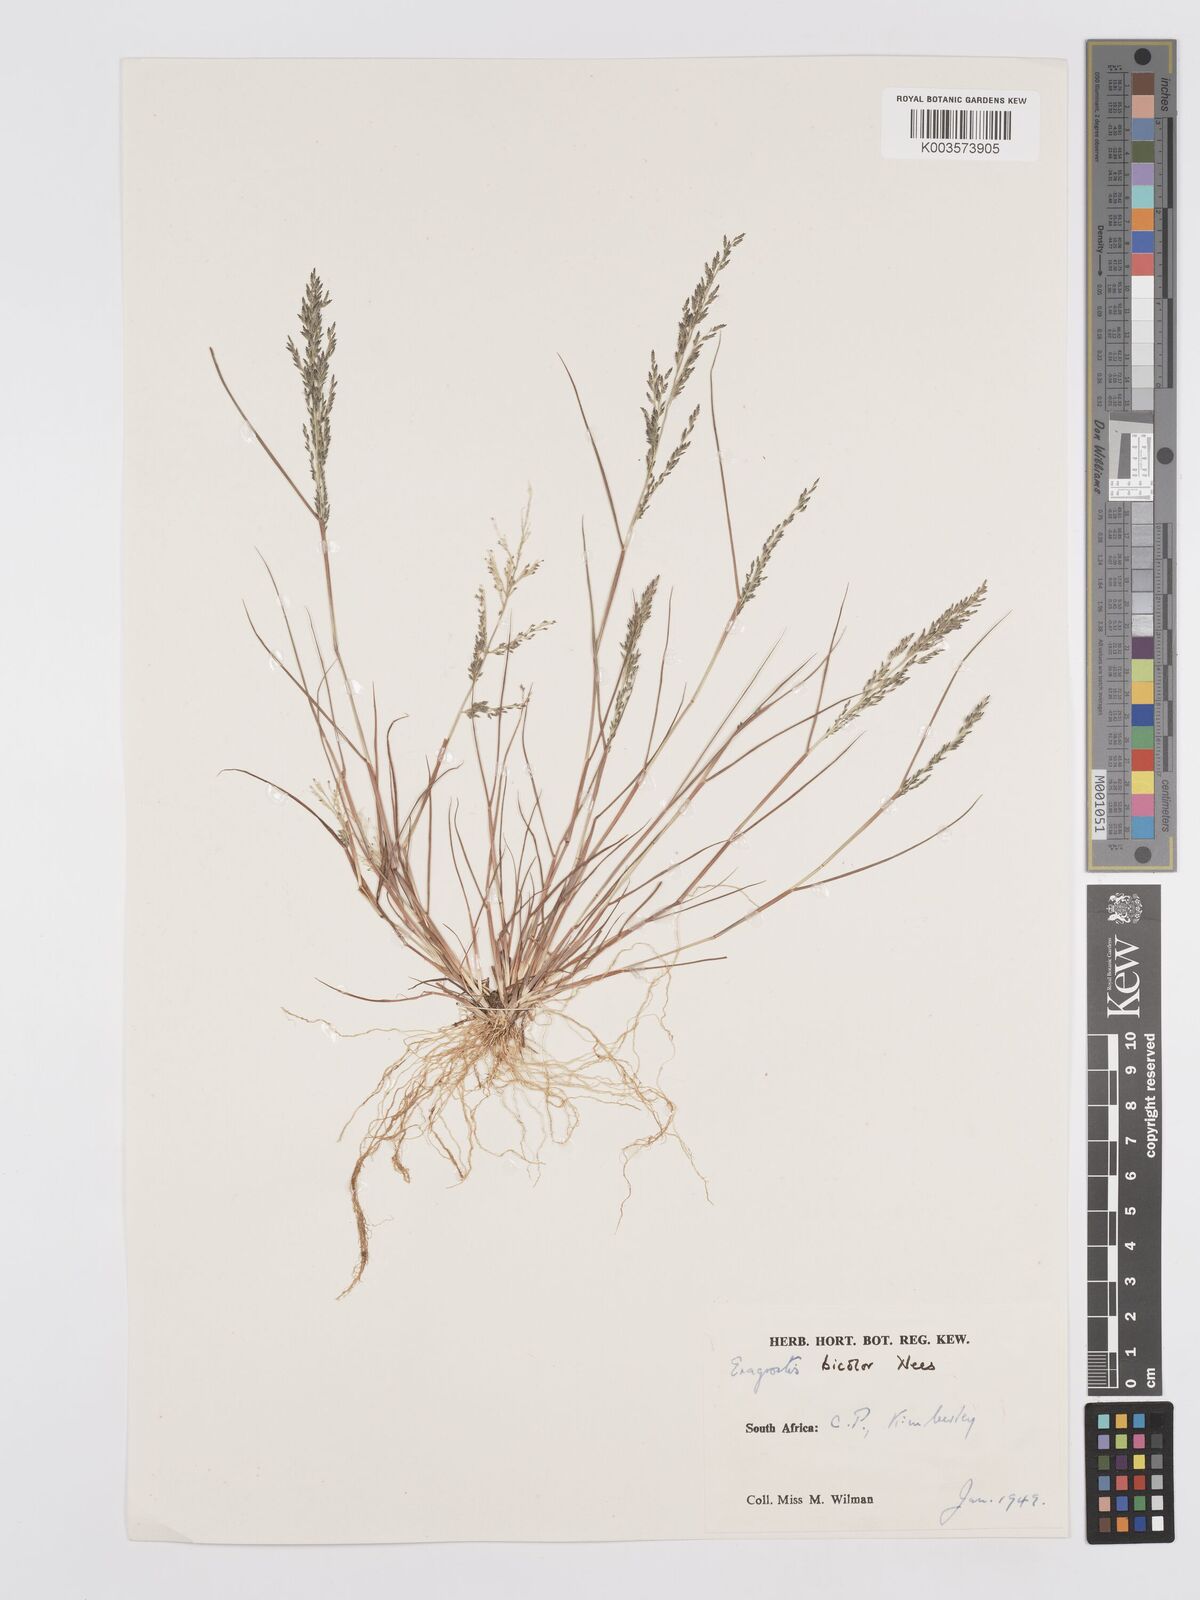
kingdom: Plantae
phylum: Tracheophyta
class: Liliopsida
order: Poales
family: Poaceae
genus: Eragrostis
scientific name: Eragrostis
